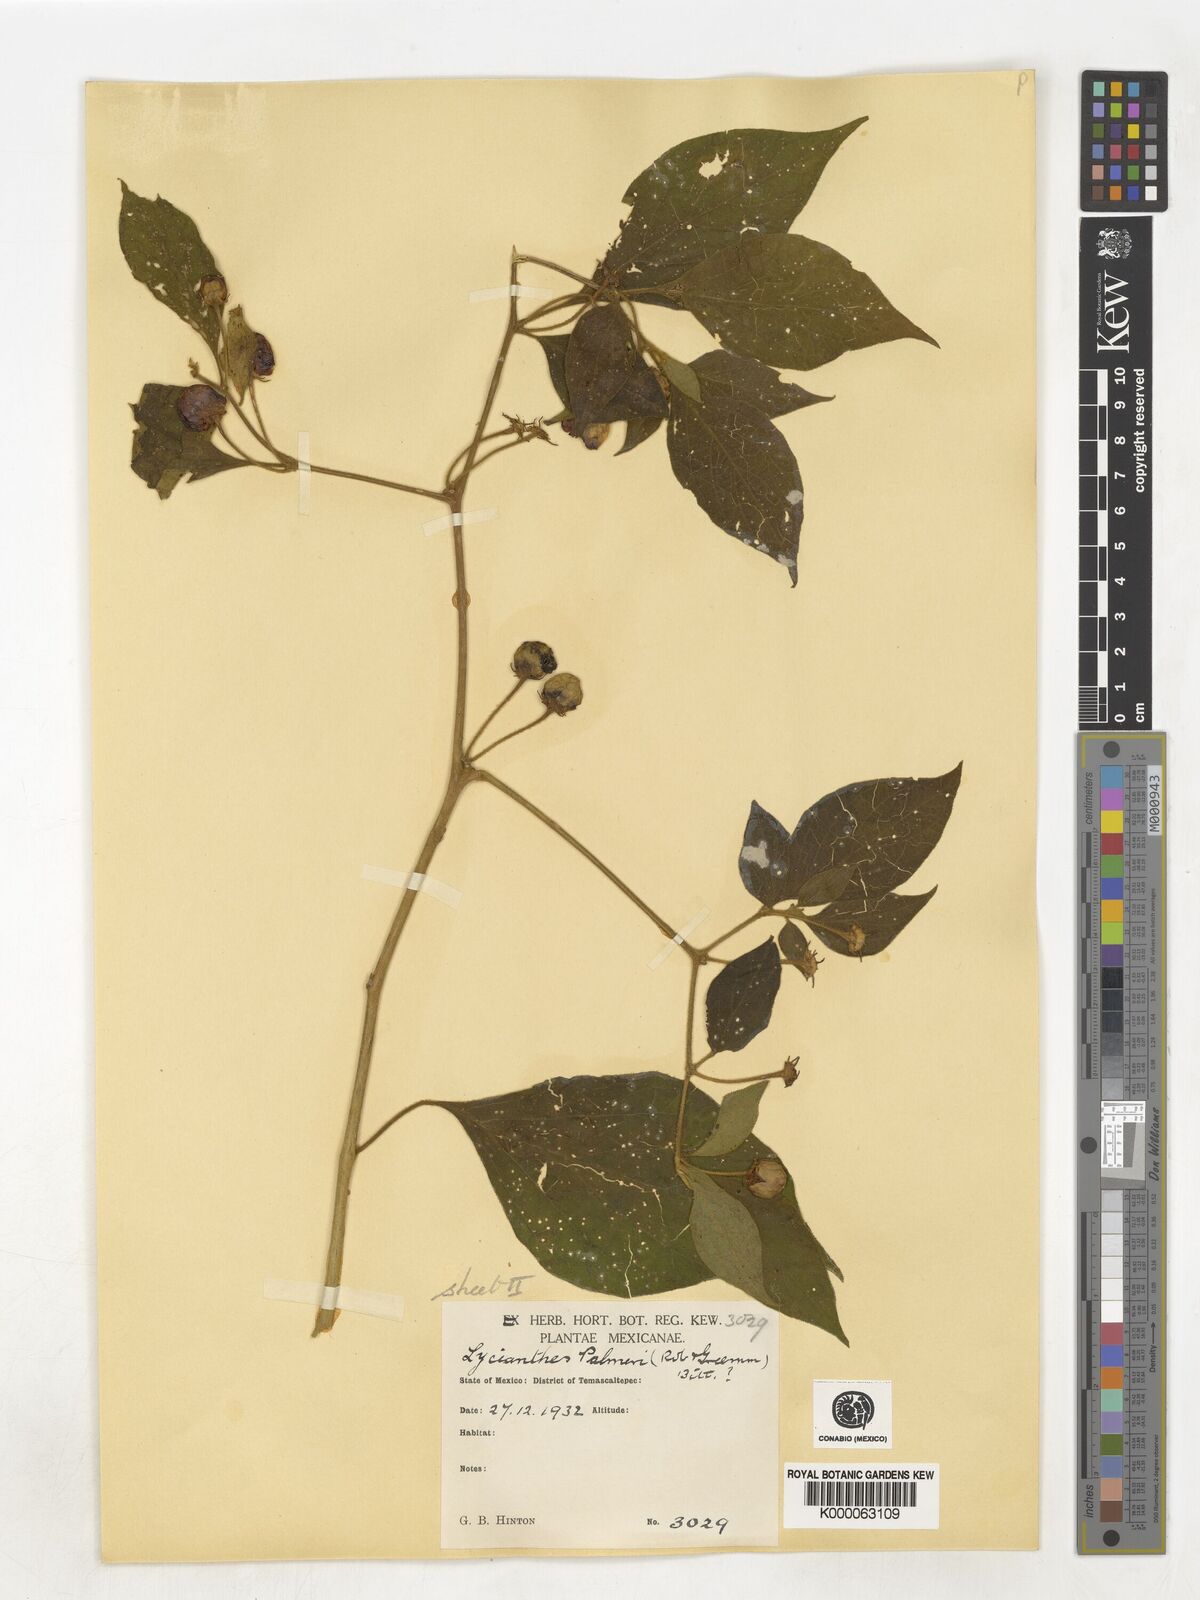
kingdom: Plantae
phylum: Tracheophyta
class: Magnoliopsida
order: Solanales
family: Solanaceae
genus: Lycianthes
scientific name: Lycianthes dejecta
